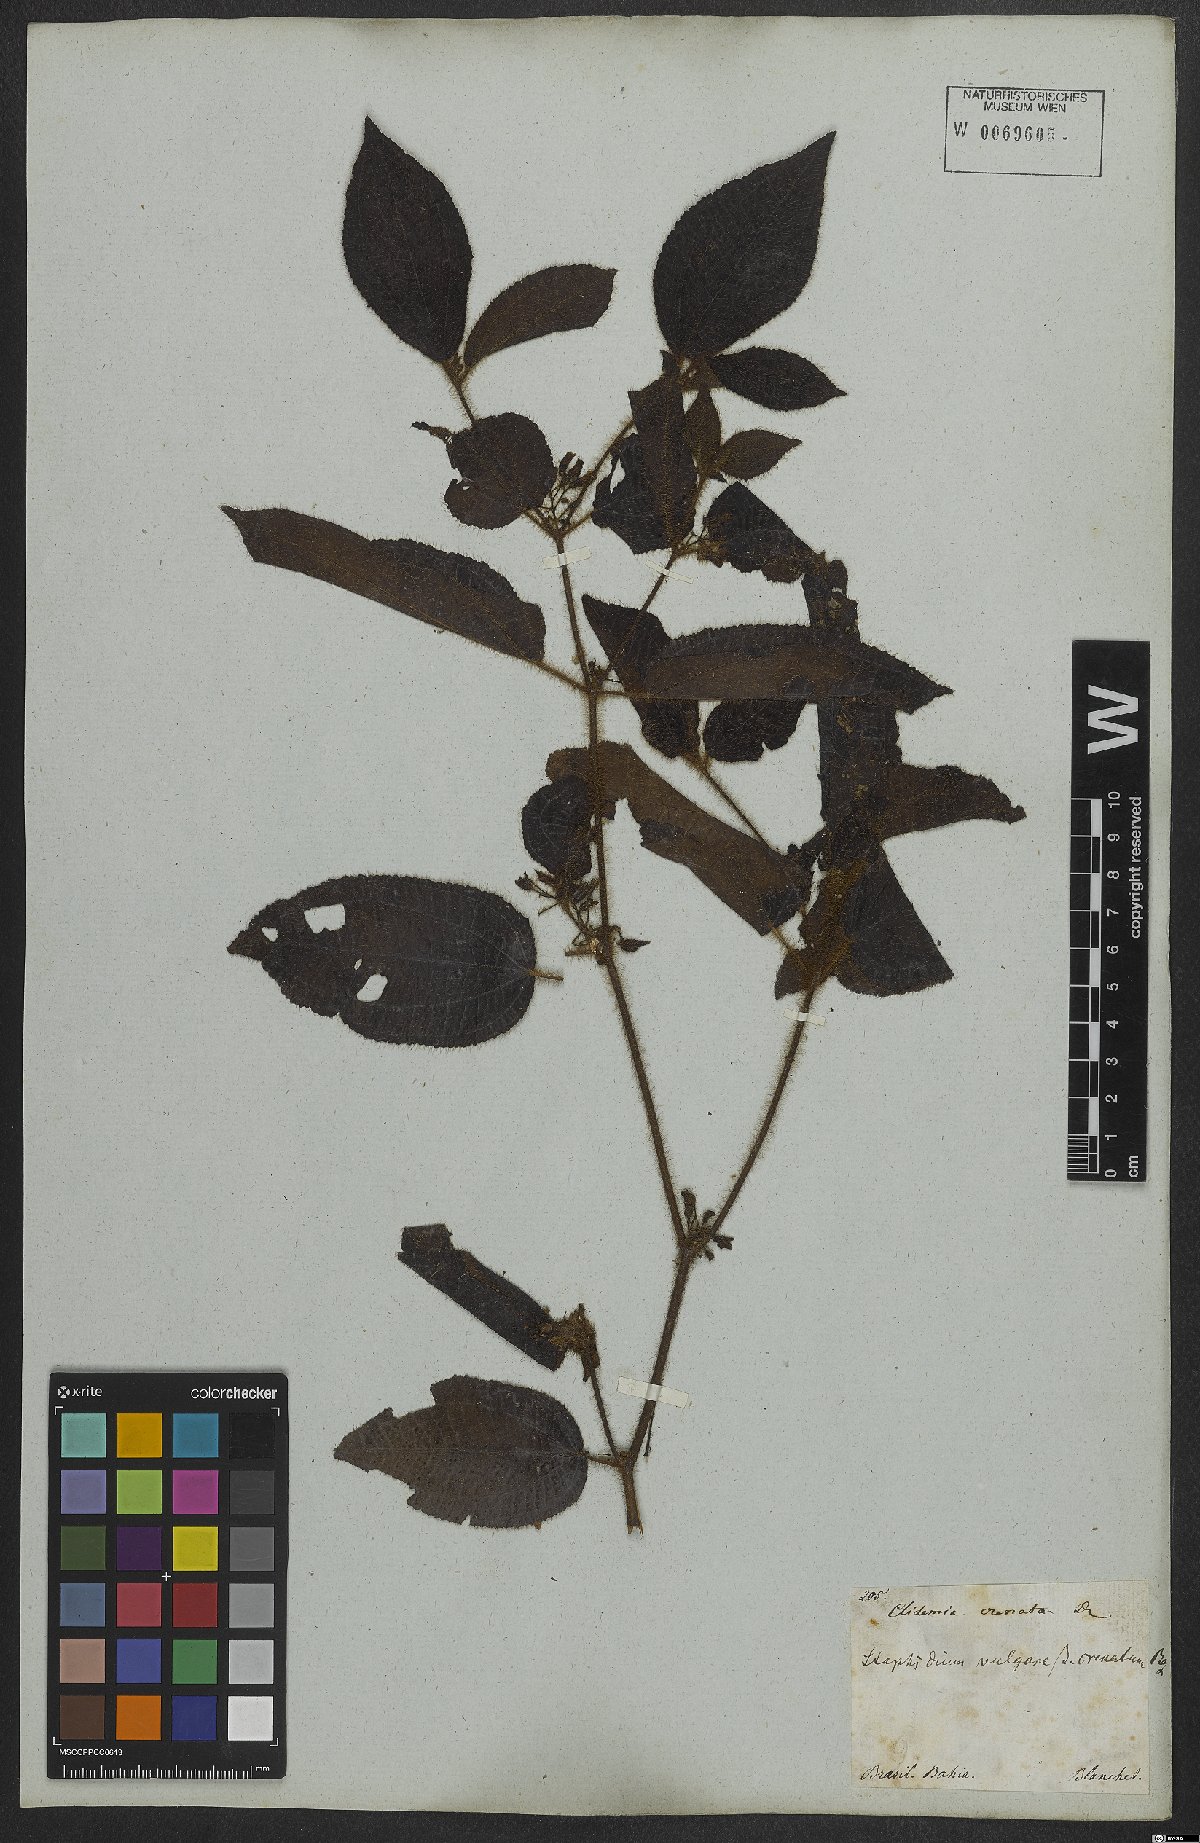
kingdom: Plantae
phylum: Tracheophyta
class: Magnoliopsida
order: Myrtales
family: Melastomataceae
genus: Miconia
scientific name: Miconia crenata
